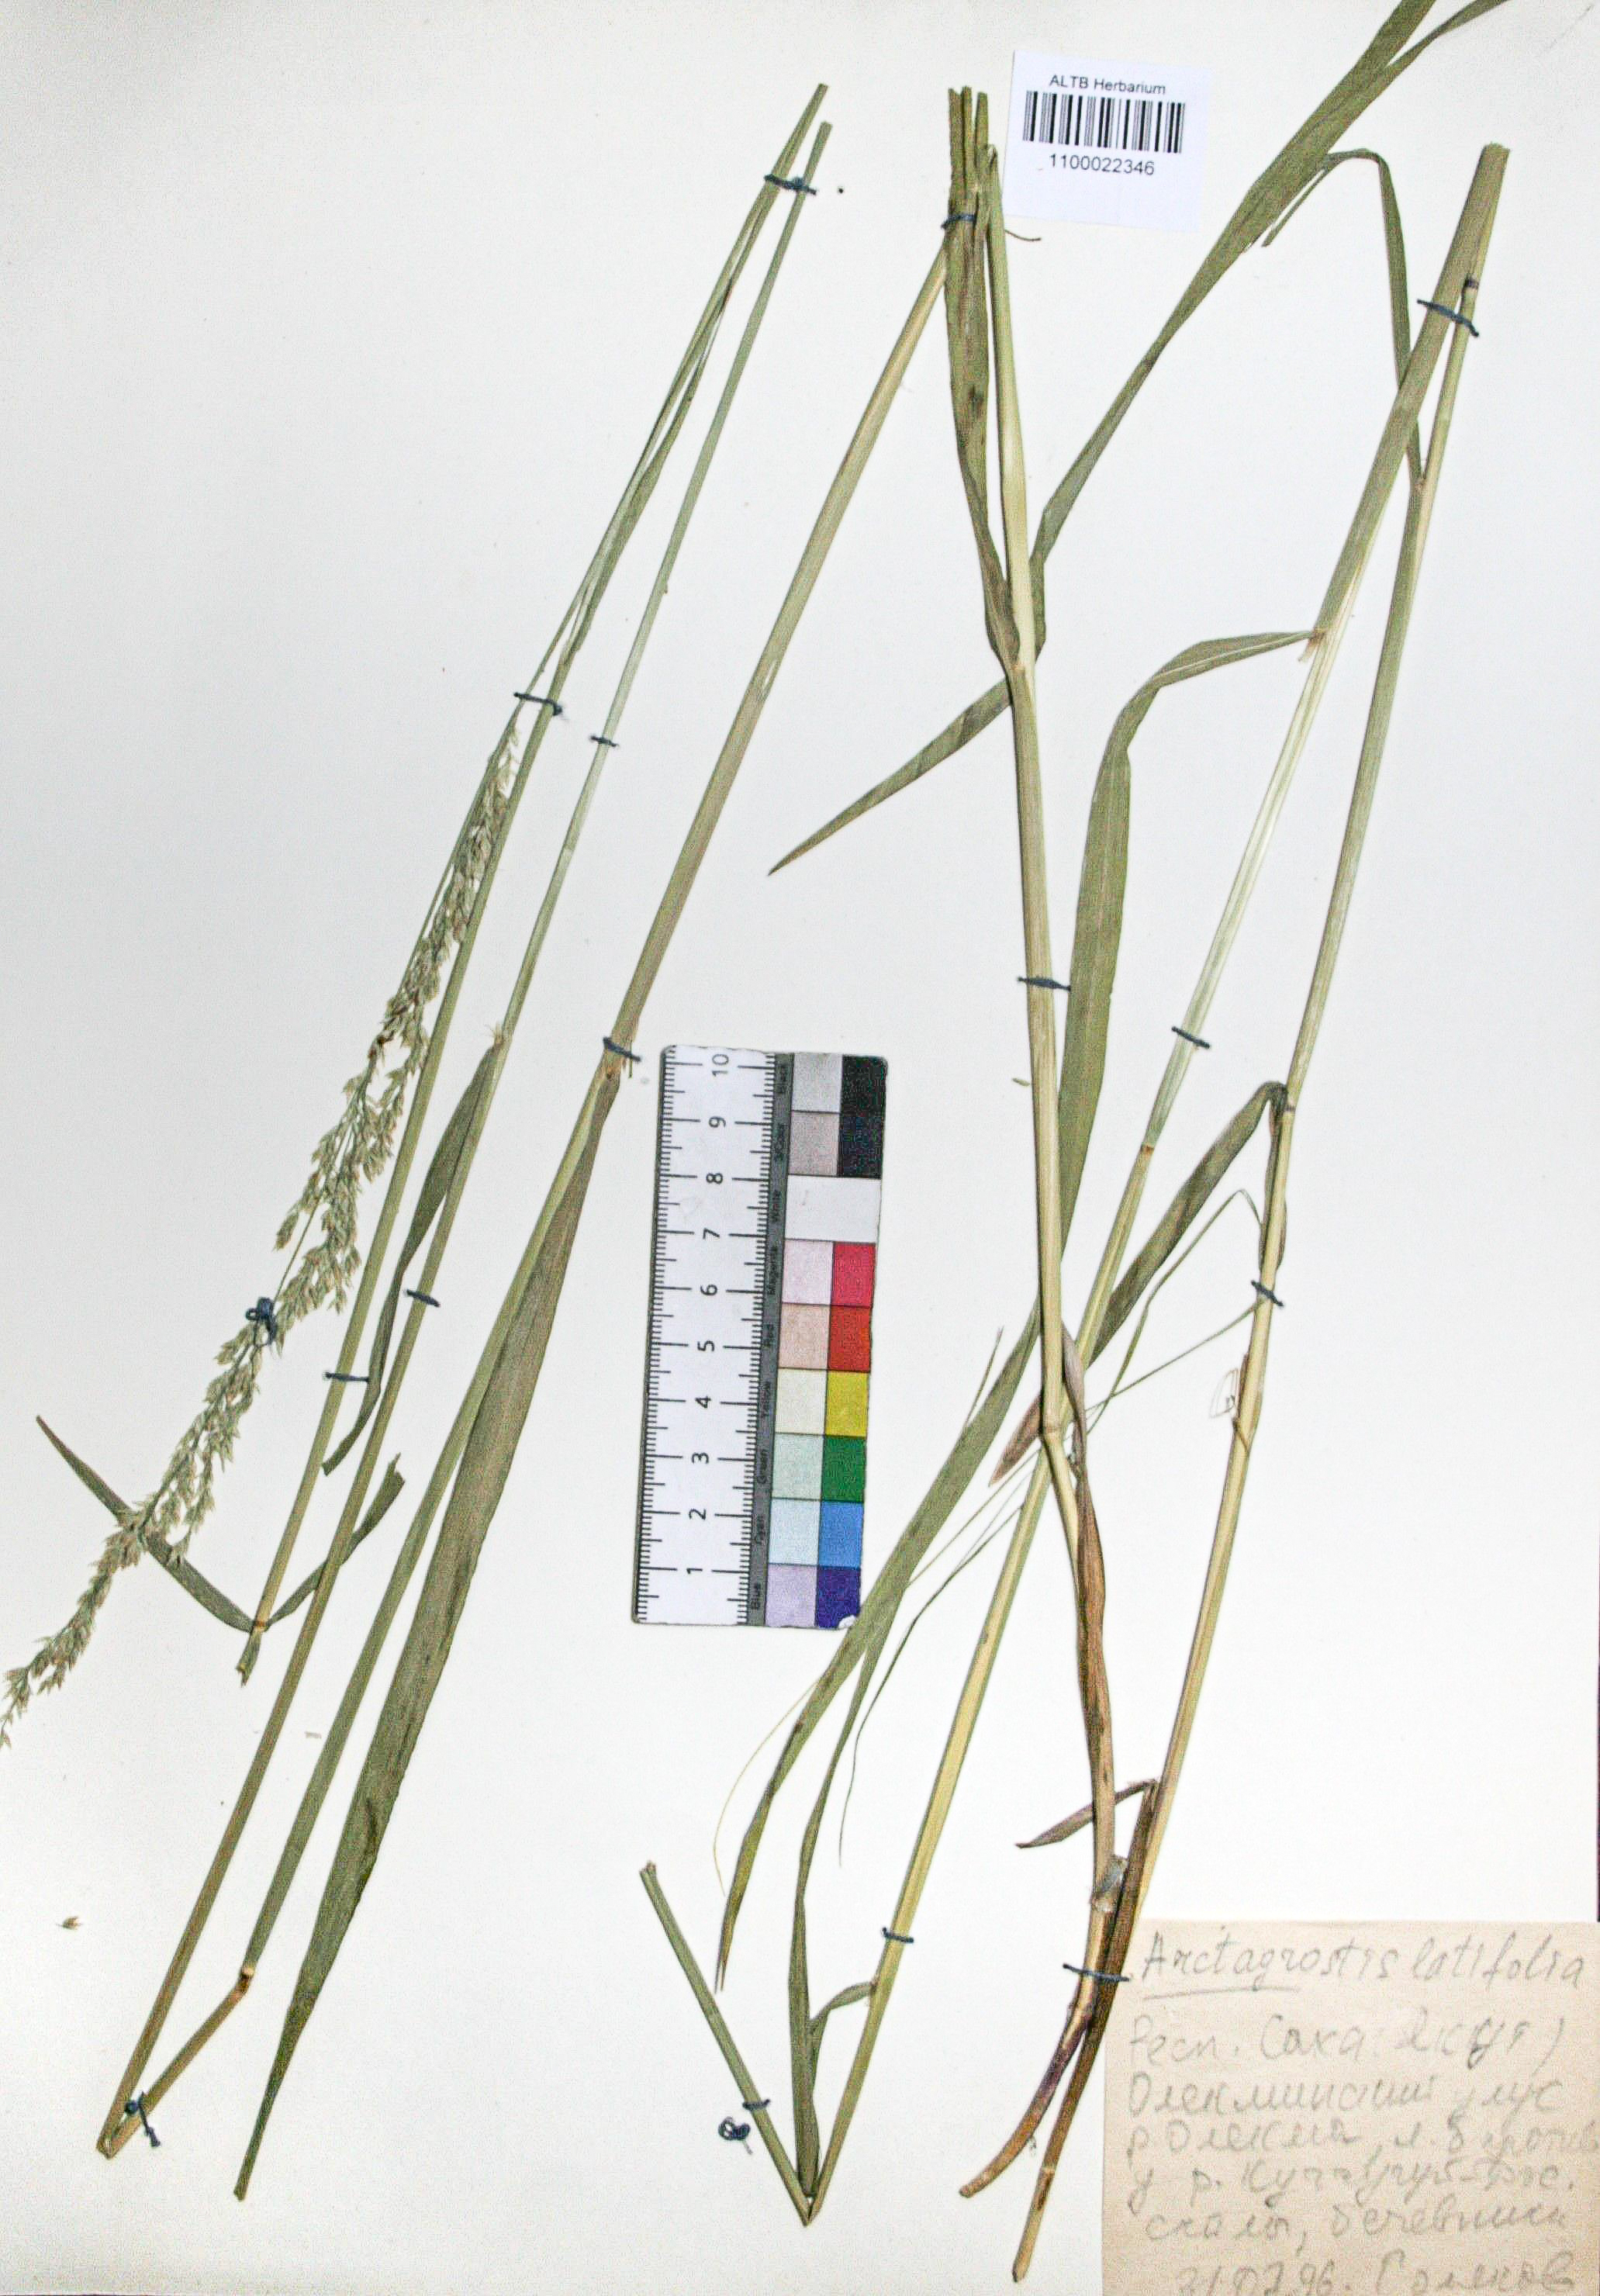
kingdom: Plantae
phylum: Tracheophyta
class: Liliopsida
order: Poales
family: Poaceae
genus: Arctagrostis
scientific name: Arctagrostis latifolia
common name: Arctic grass
